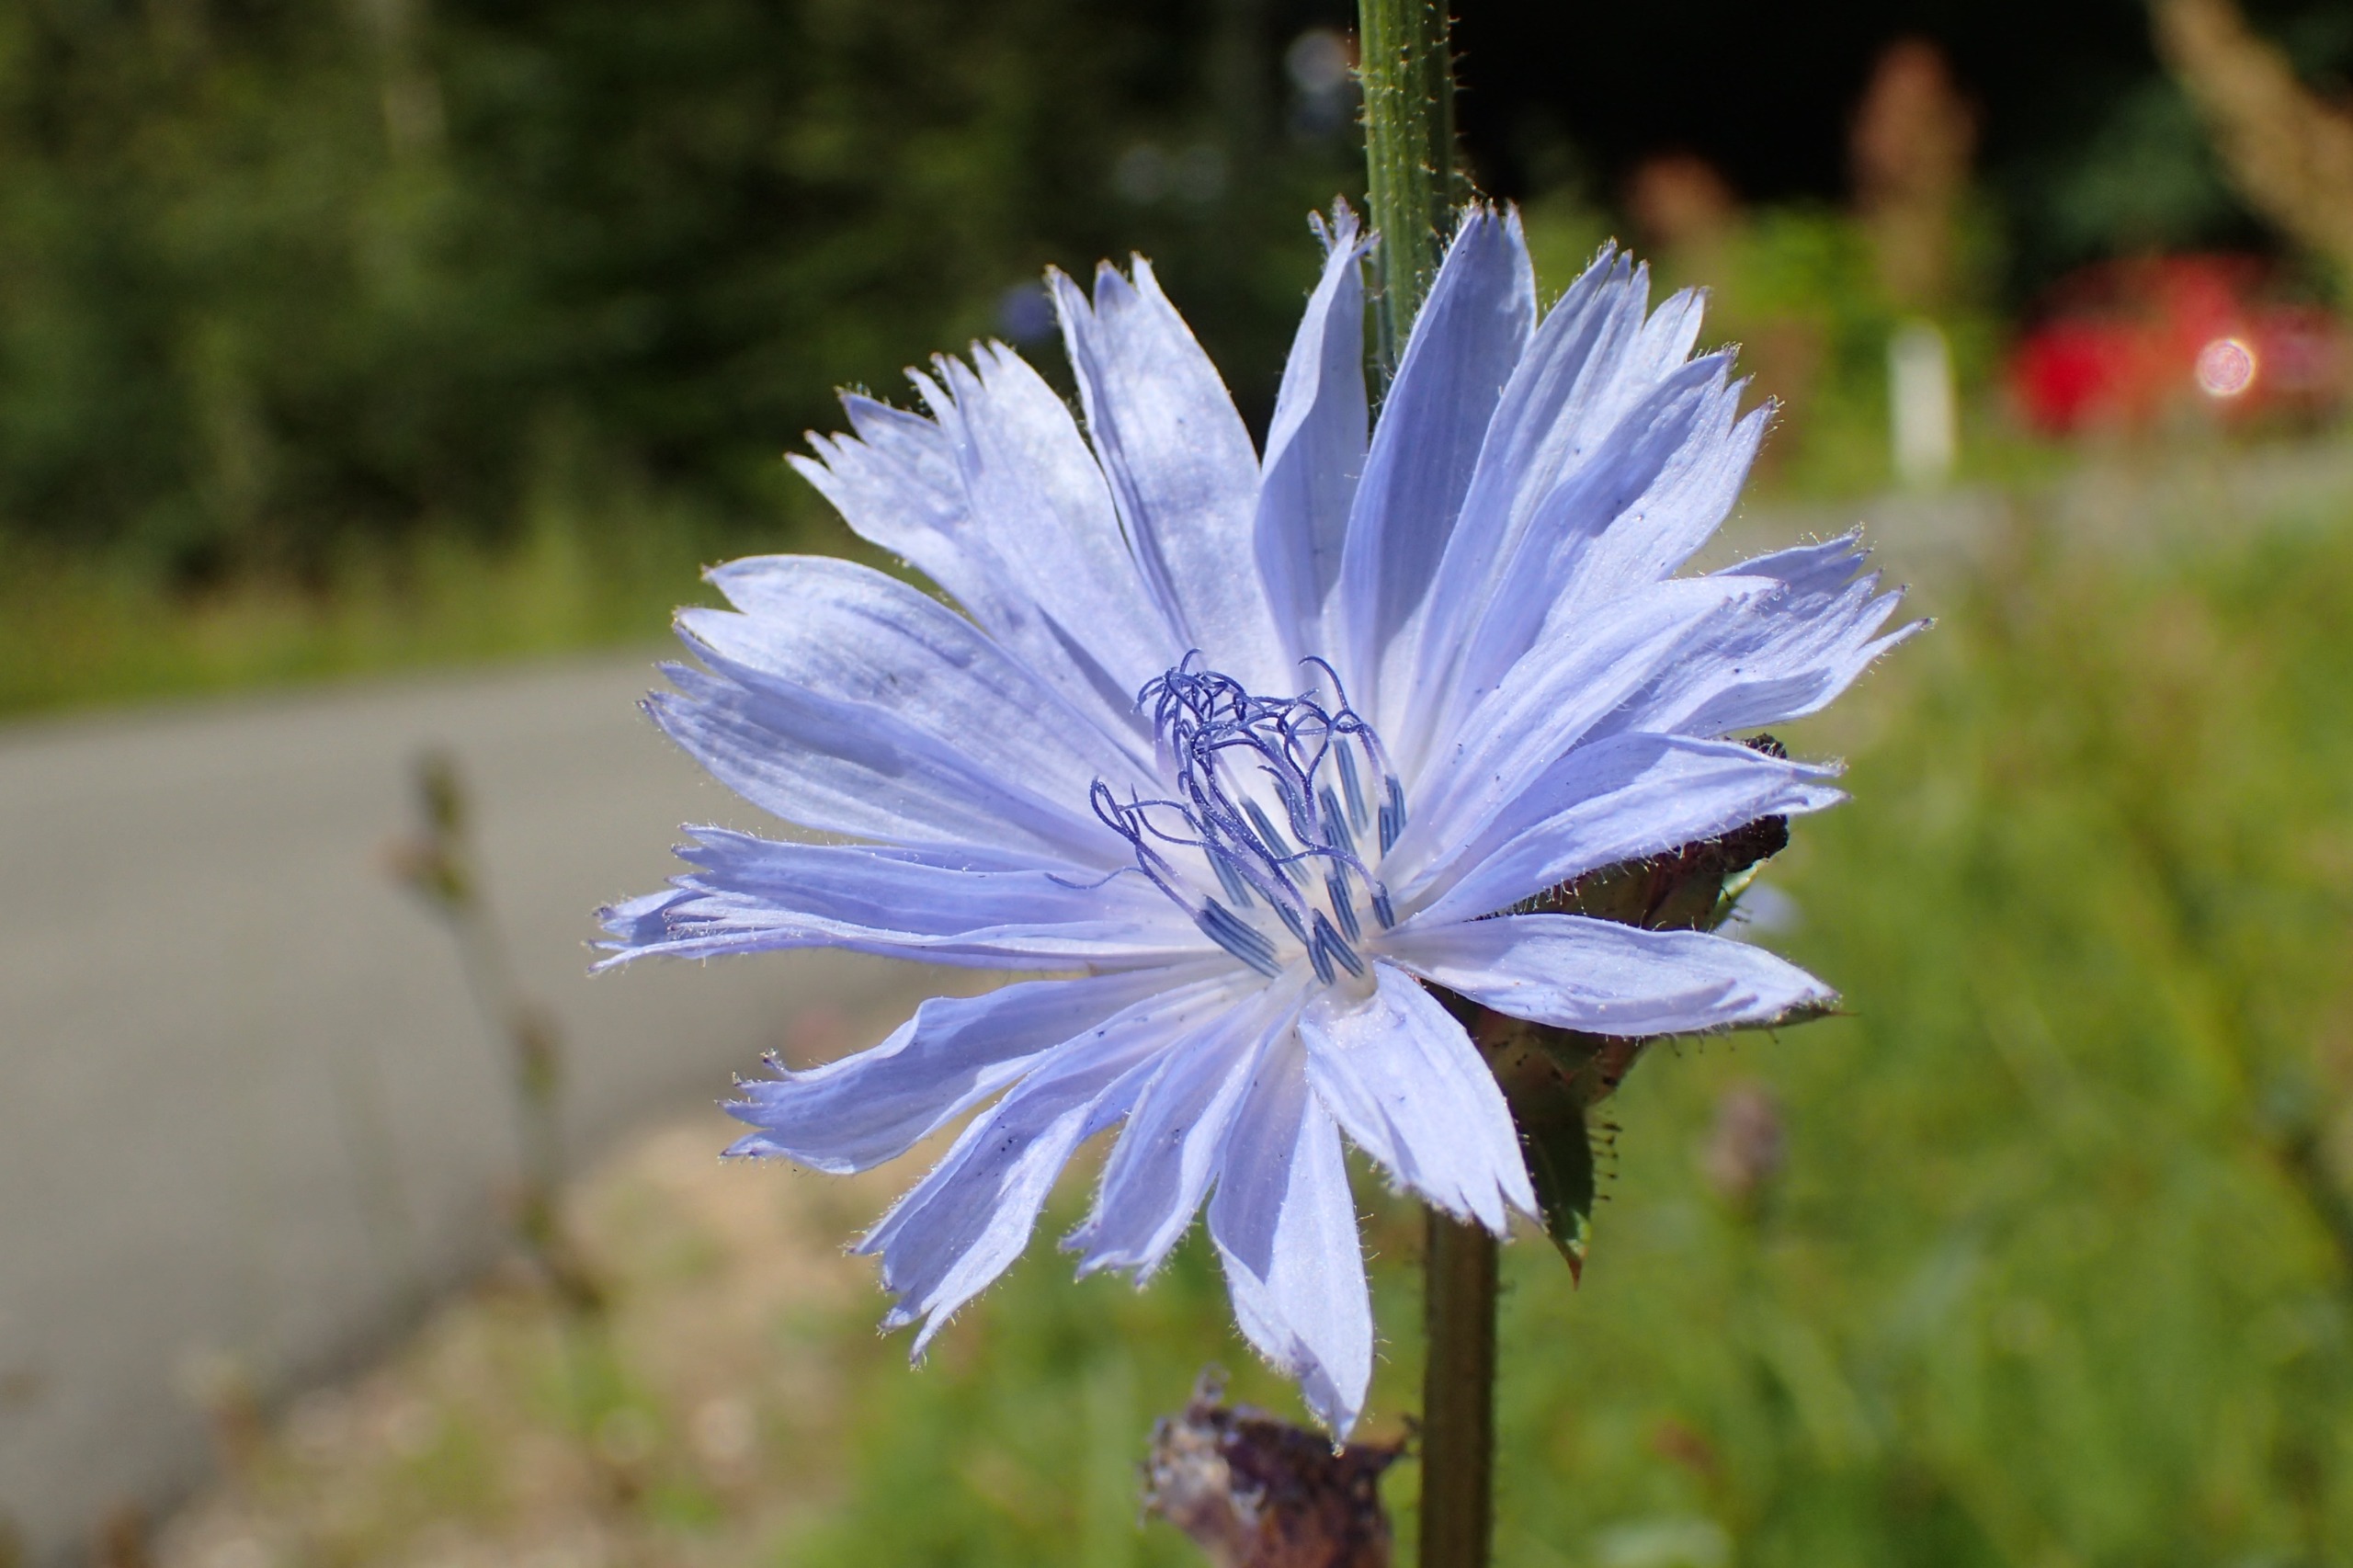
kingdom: Plantae
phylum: Tracheophyta
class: Magnoliopsida
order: Asterales
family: Asteraceae
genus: Cichorium
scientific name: Cichorium intybus
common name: Cikorie
